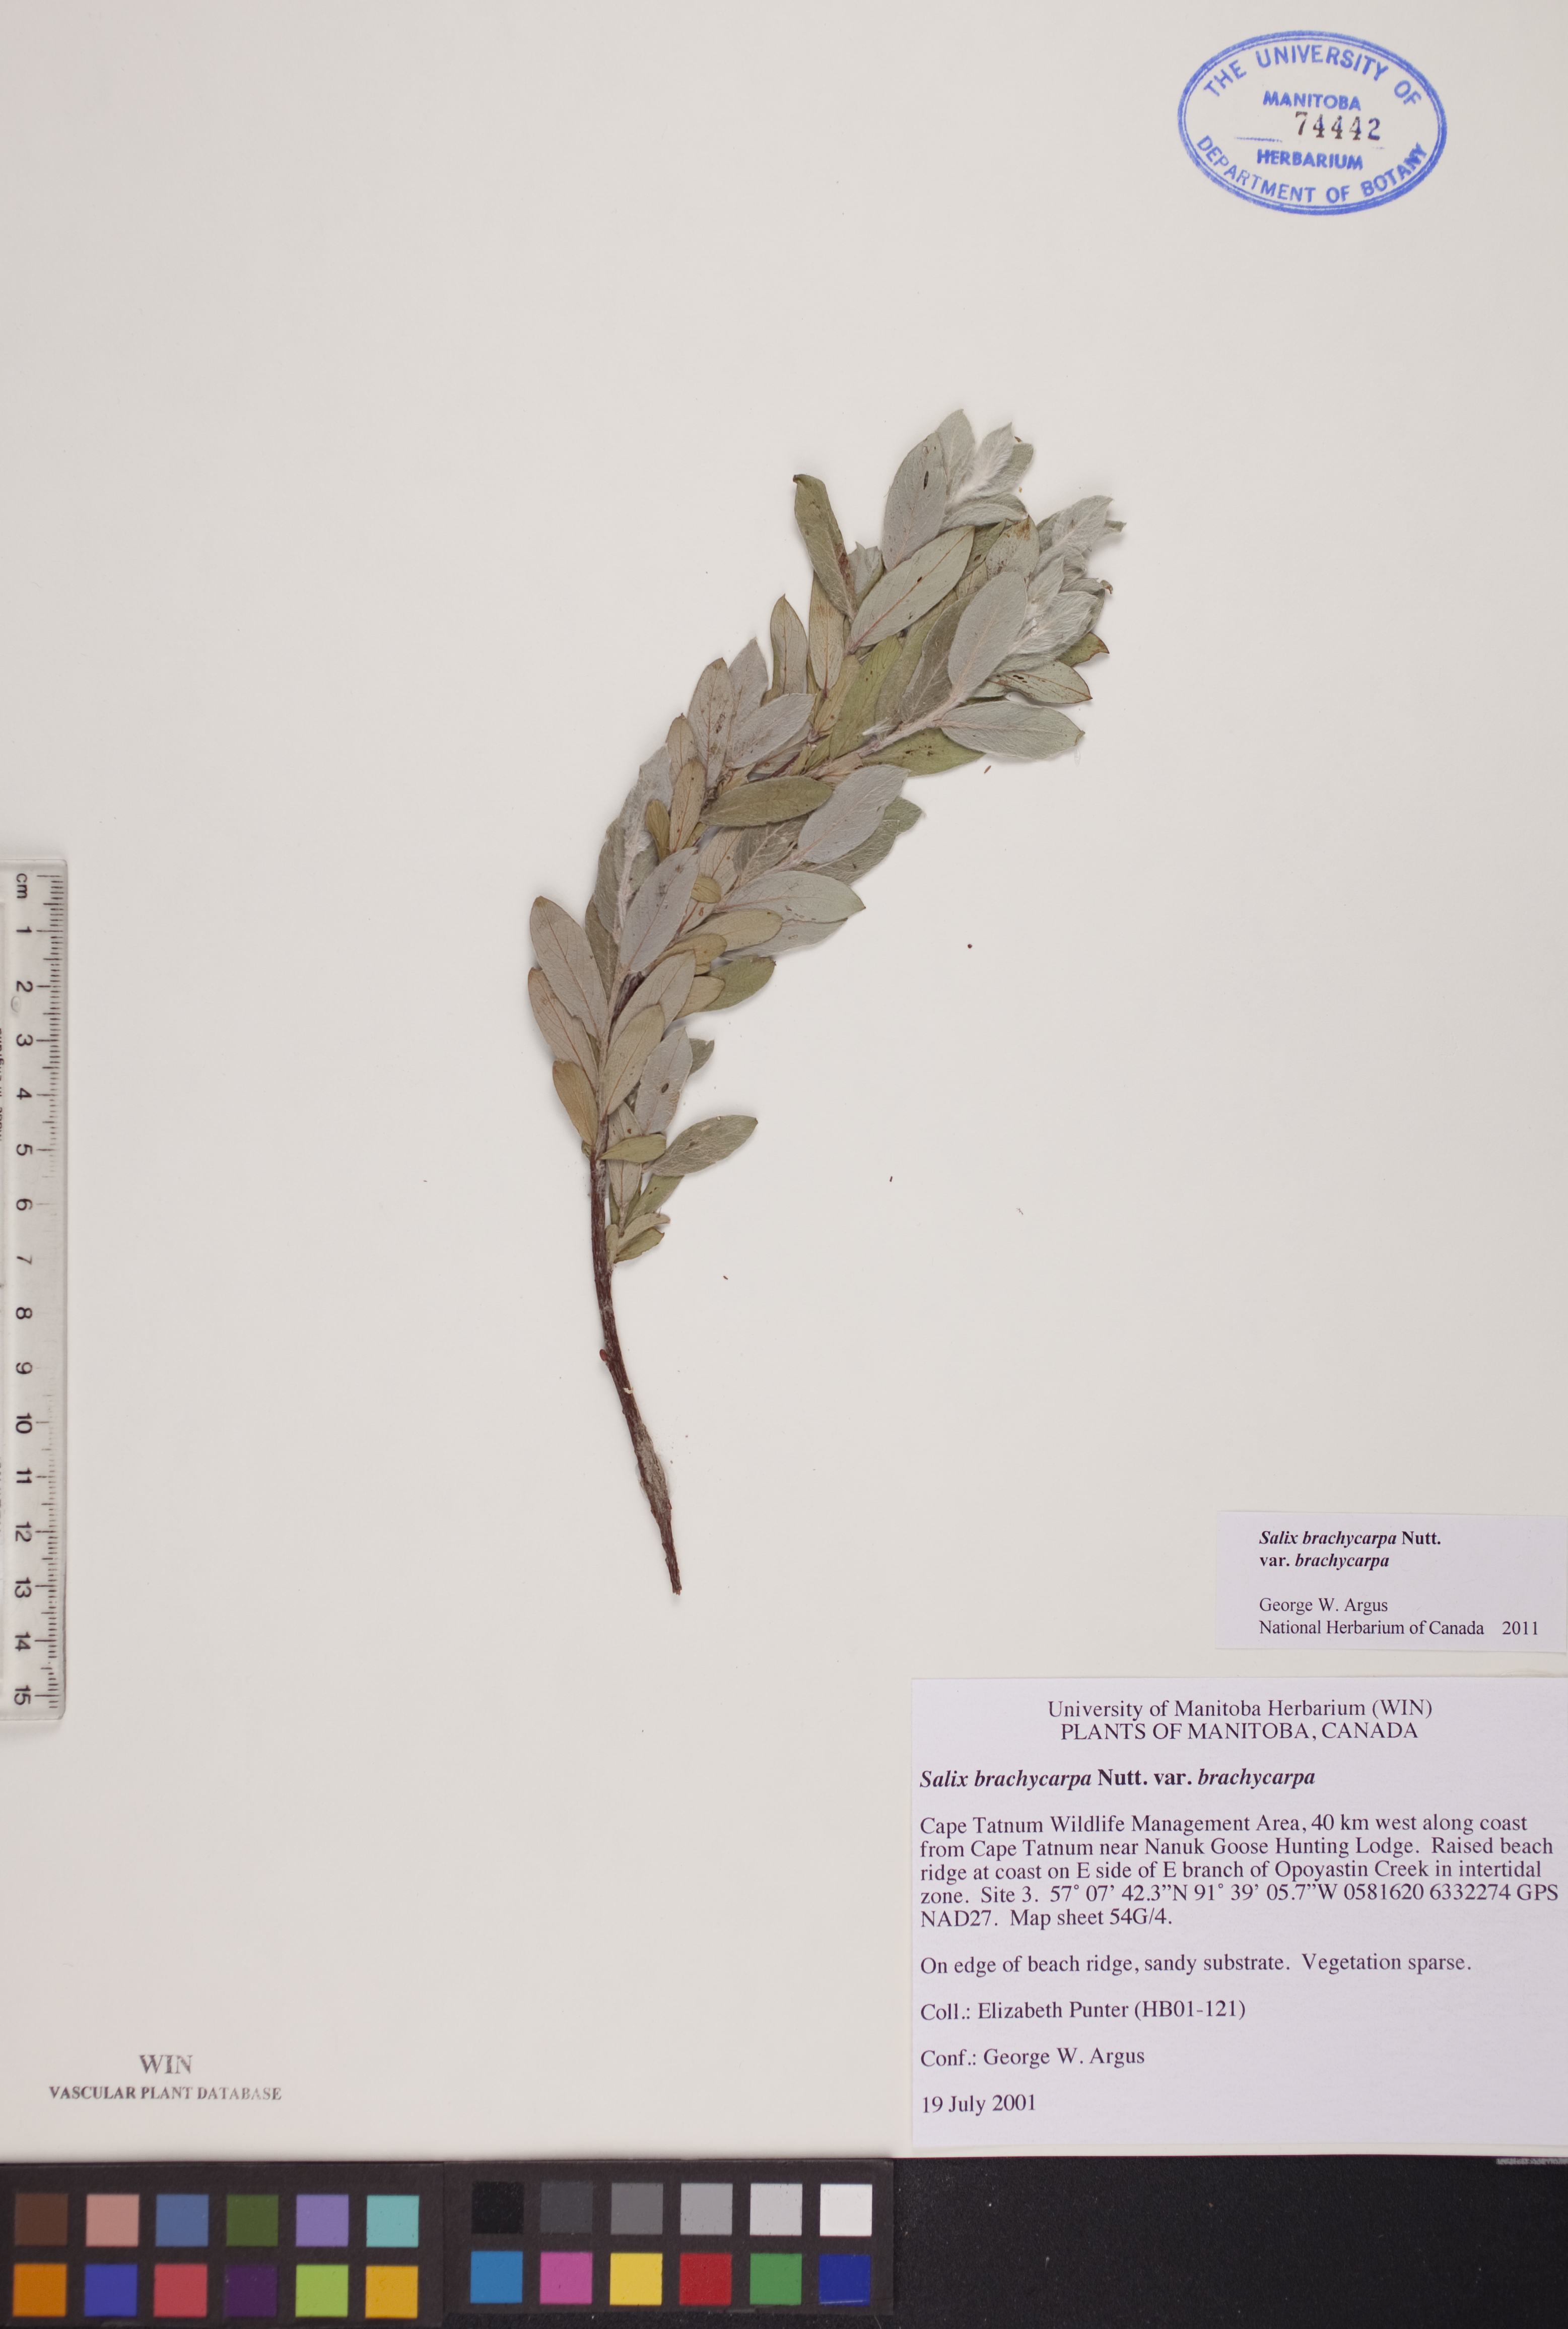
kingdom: Plantae
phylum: Tracheophyta
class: Magnoliopsida
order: Malpighiales
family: Salicaceae
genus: Salix
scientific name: Salix brachycarpa
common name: Barren-ground willow
